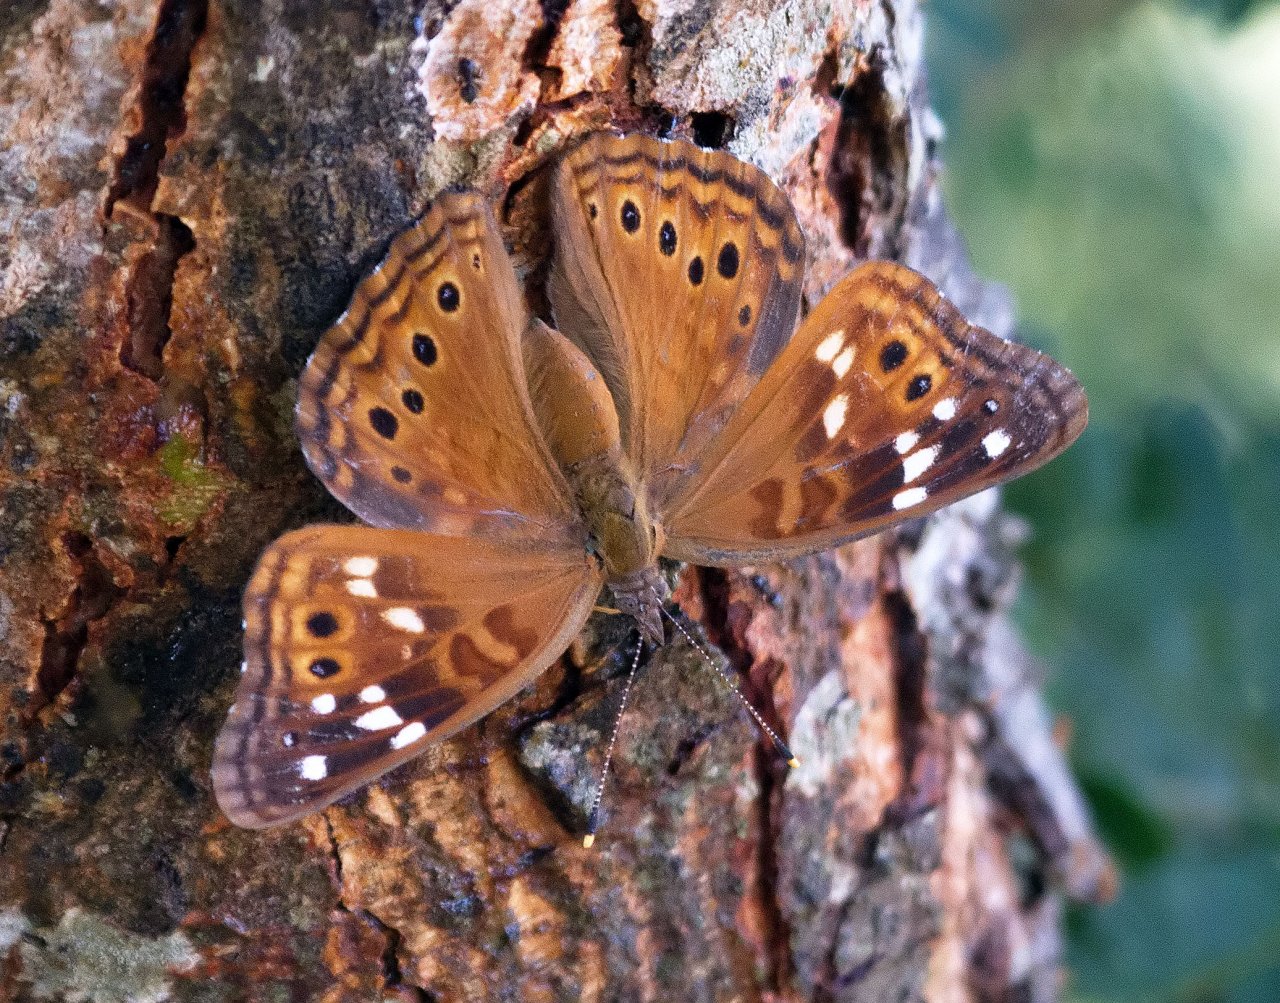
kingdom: Animalia
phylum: Arthropoda
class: Insecta
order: Lepidoptera
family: Nymphalidae
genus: Asterocampa
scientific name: Asterocampa leilia
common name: Empress Leilia
